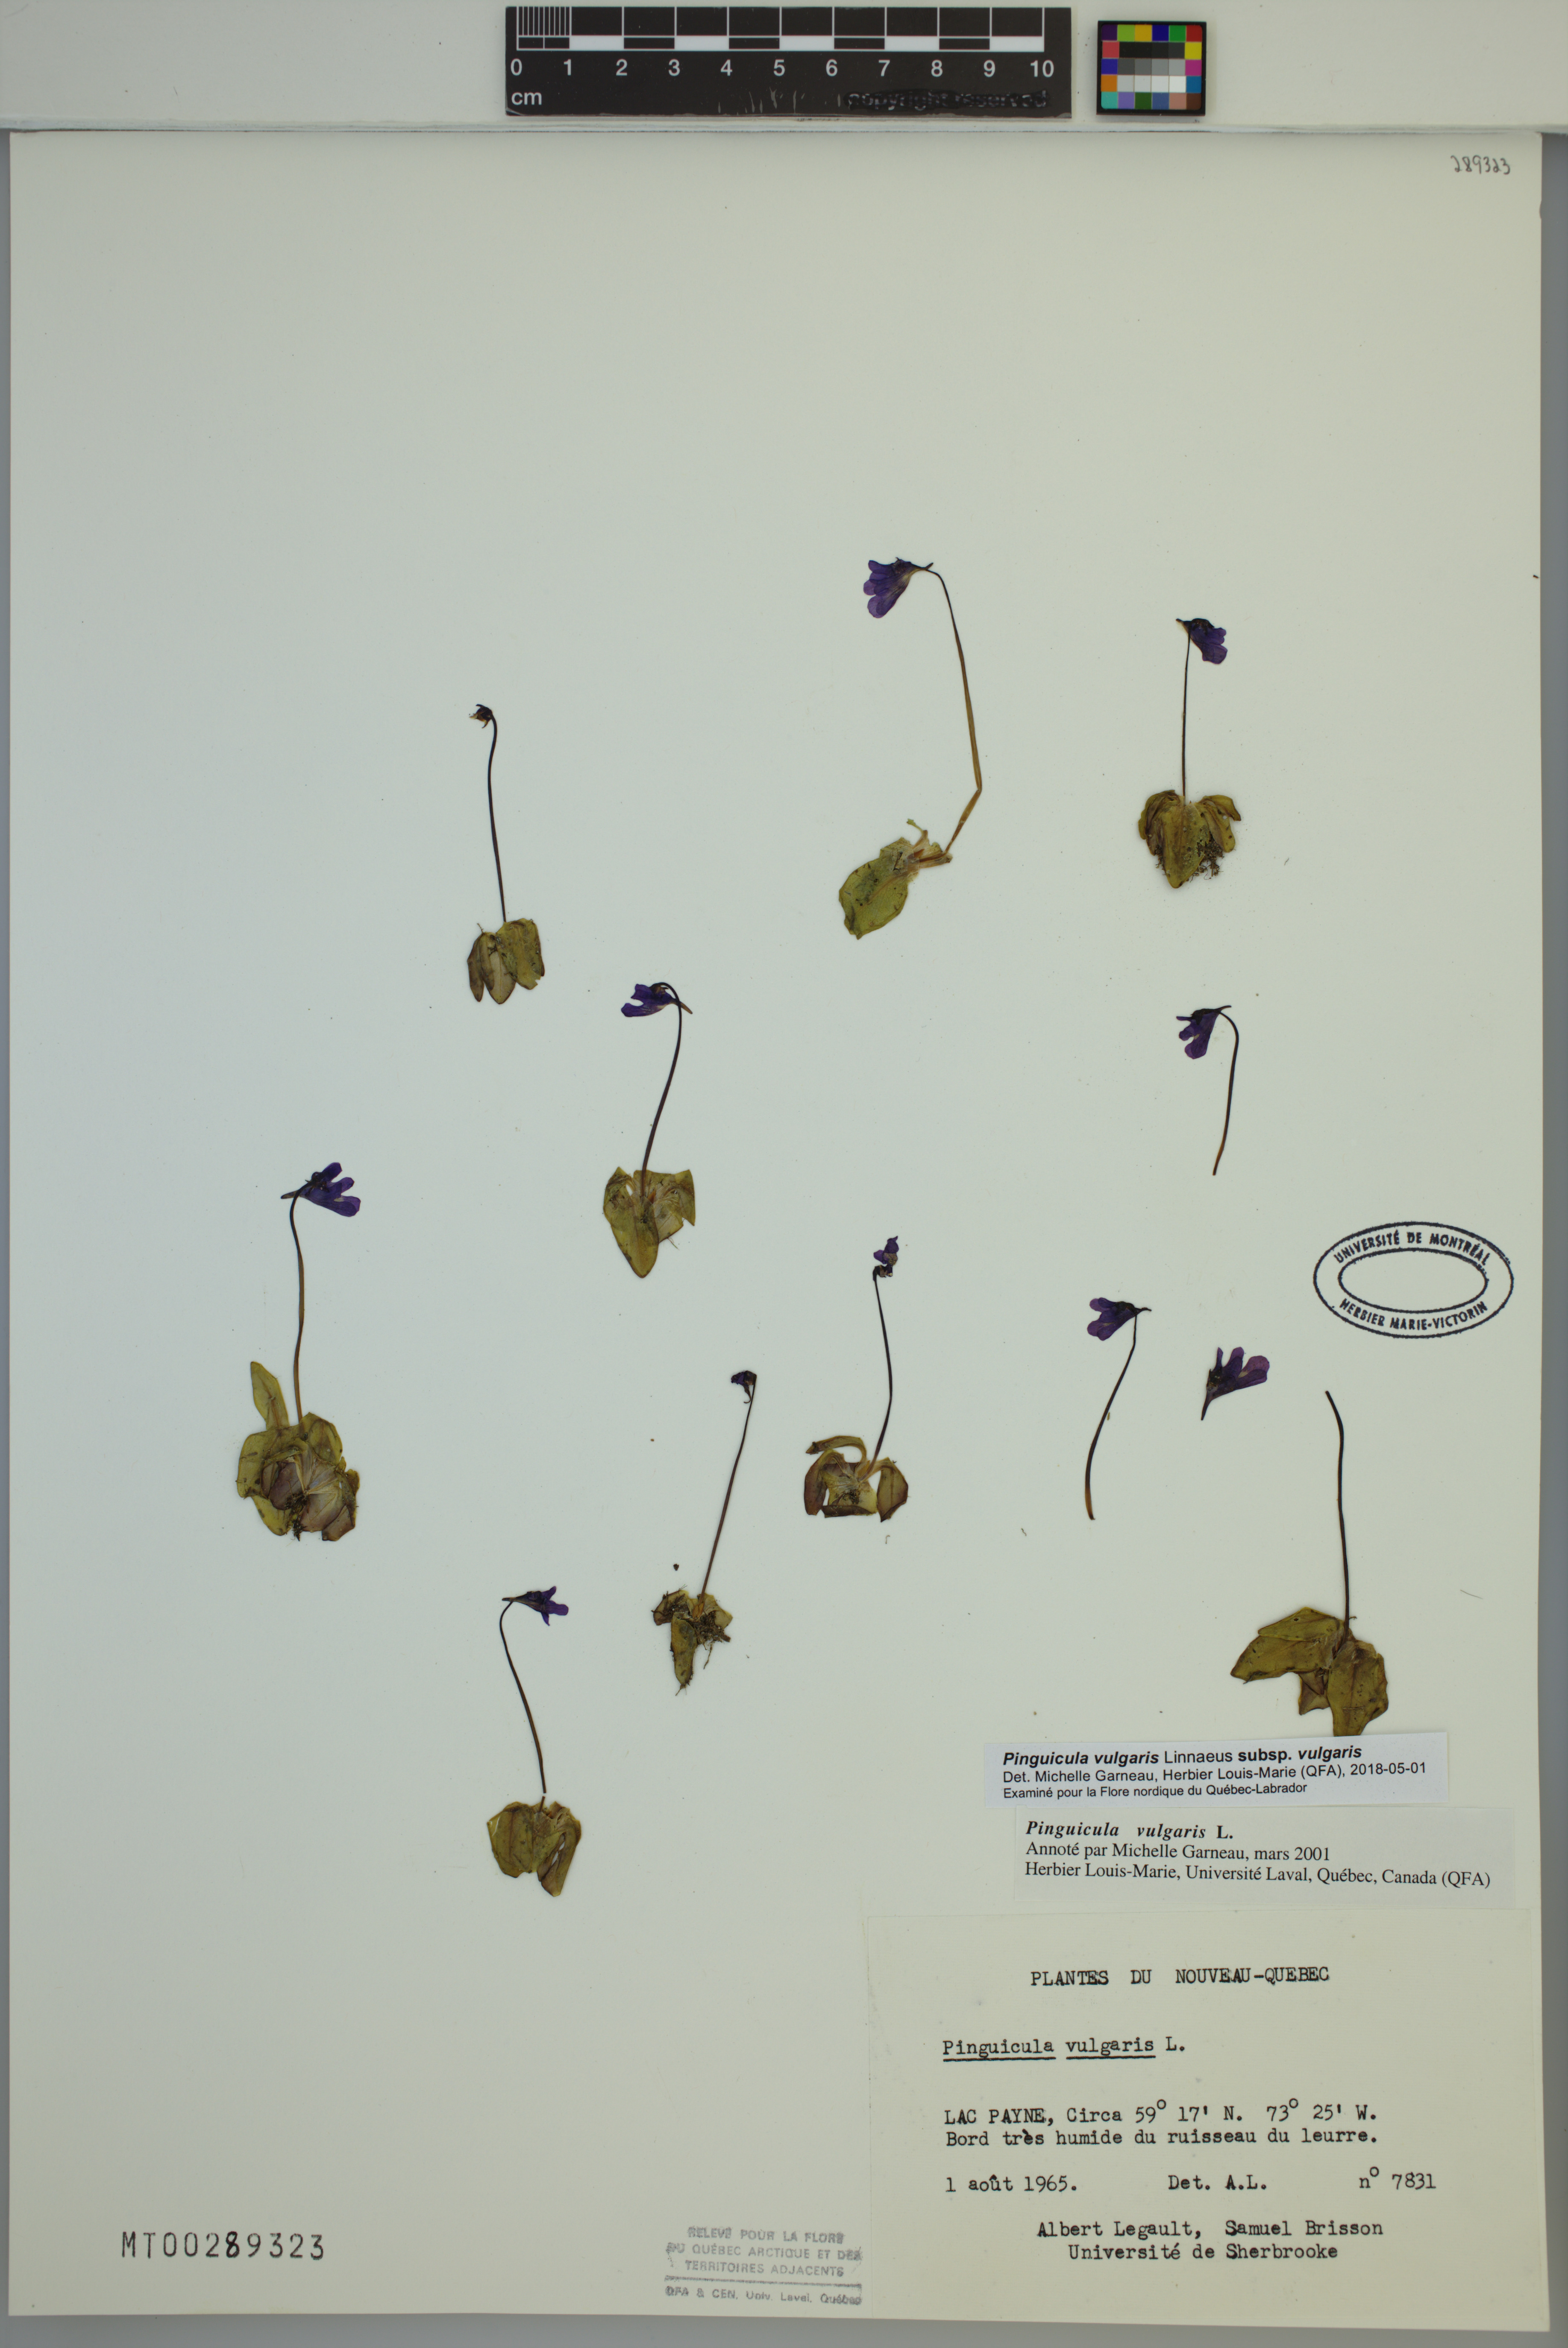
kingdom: Plantae
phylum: Tracheophyta
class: Magnoliopsida
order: Lamiales
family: Lentibulariaceae
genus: Pinguicula
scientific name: Pinguicula vulgaris
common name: Common butterwort
